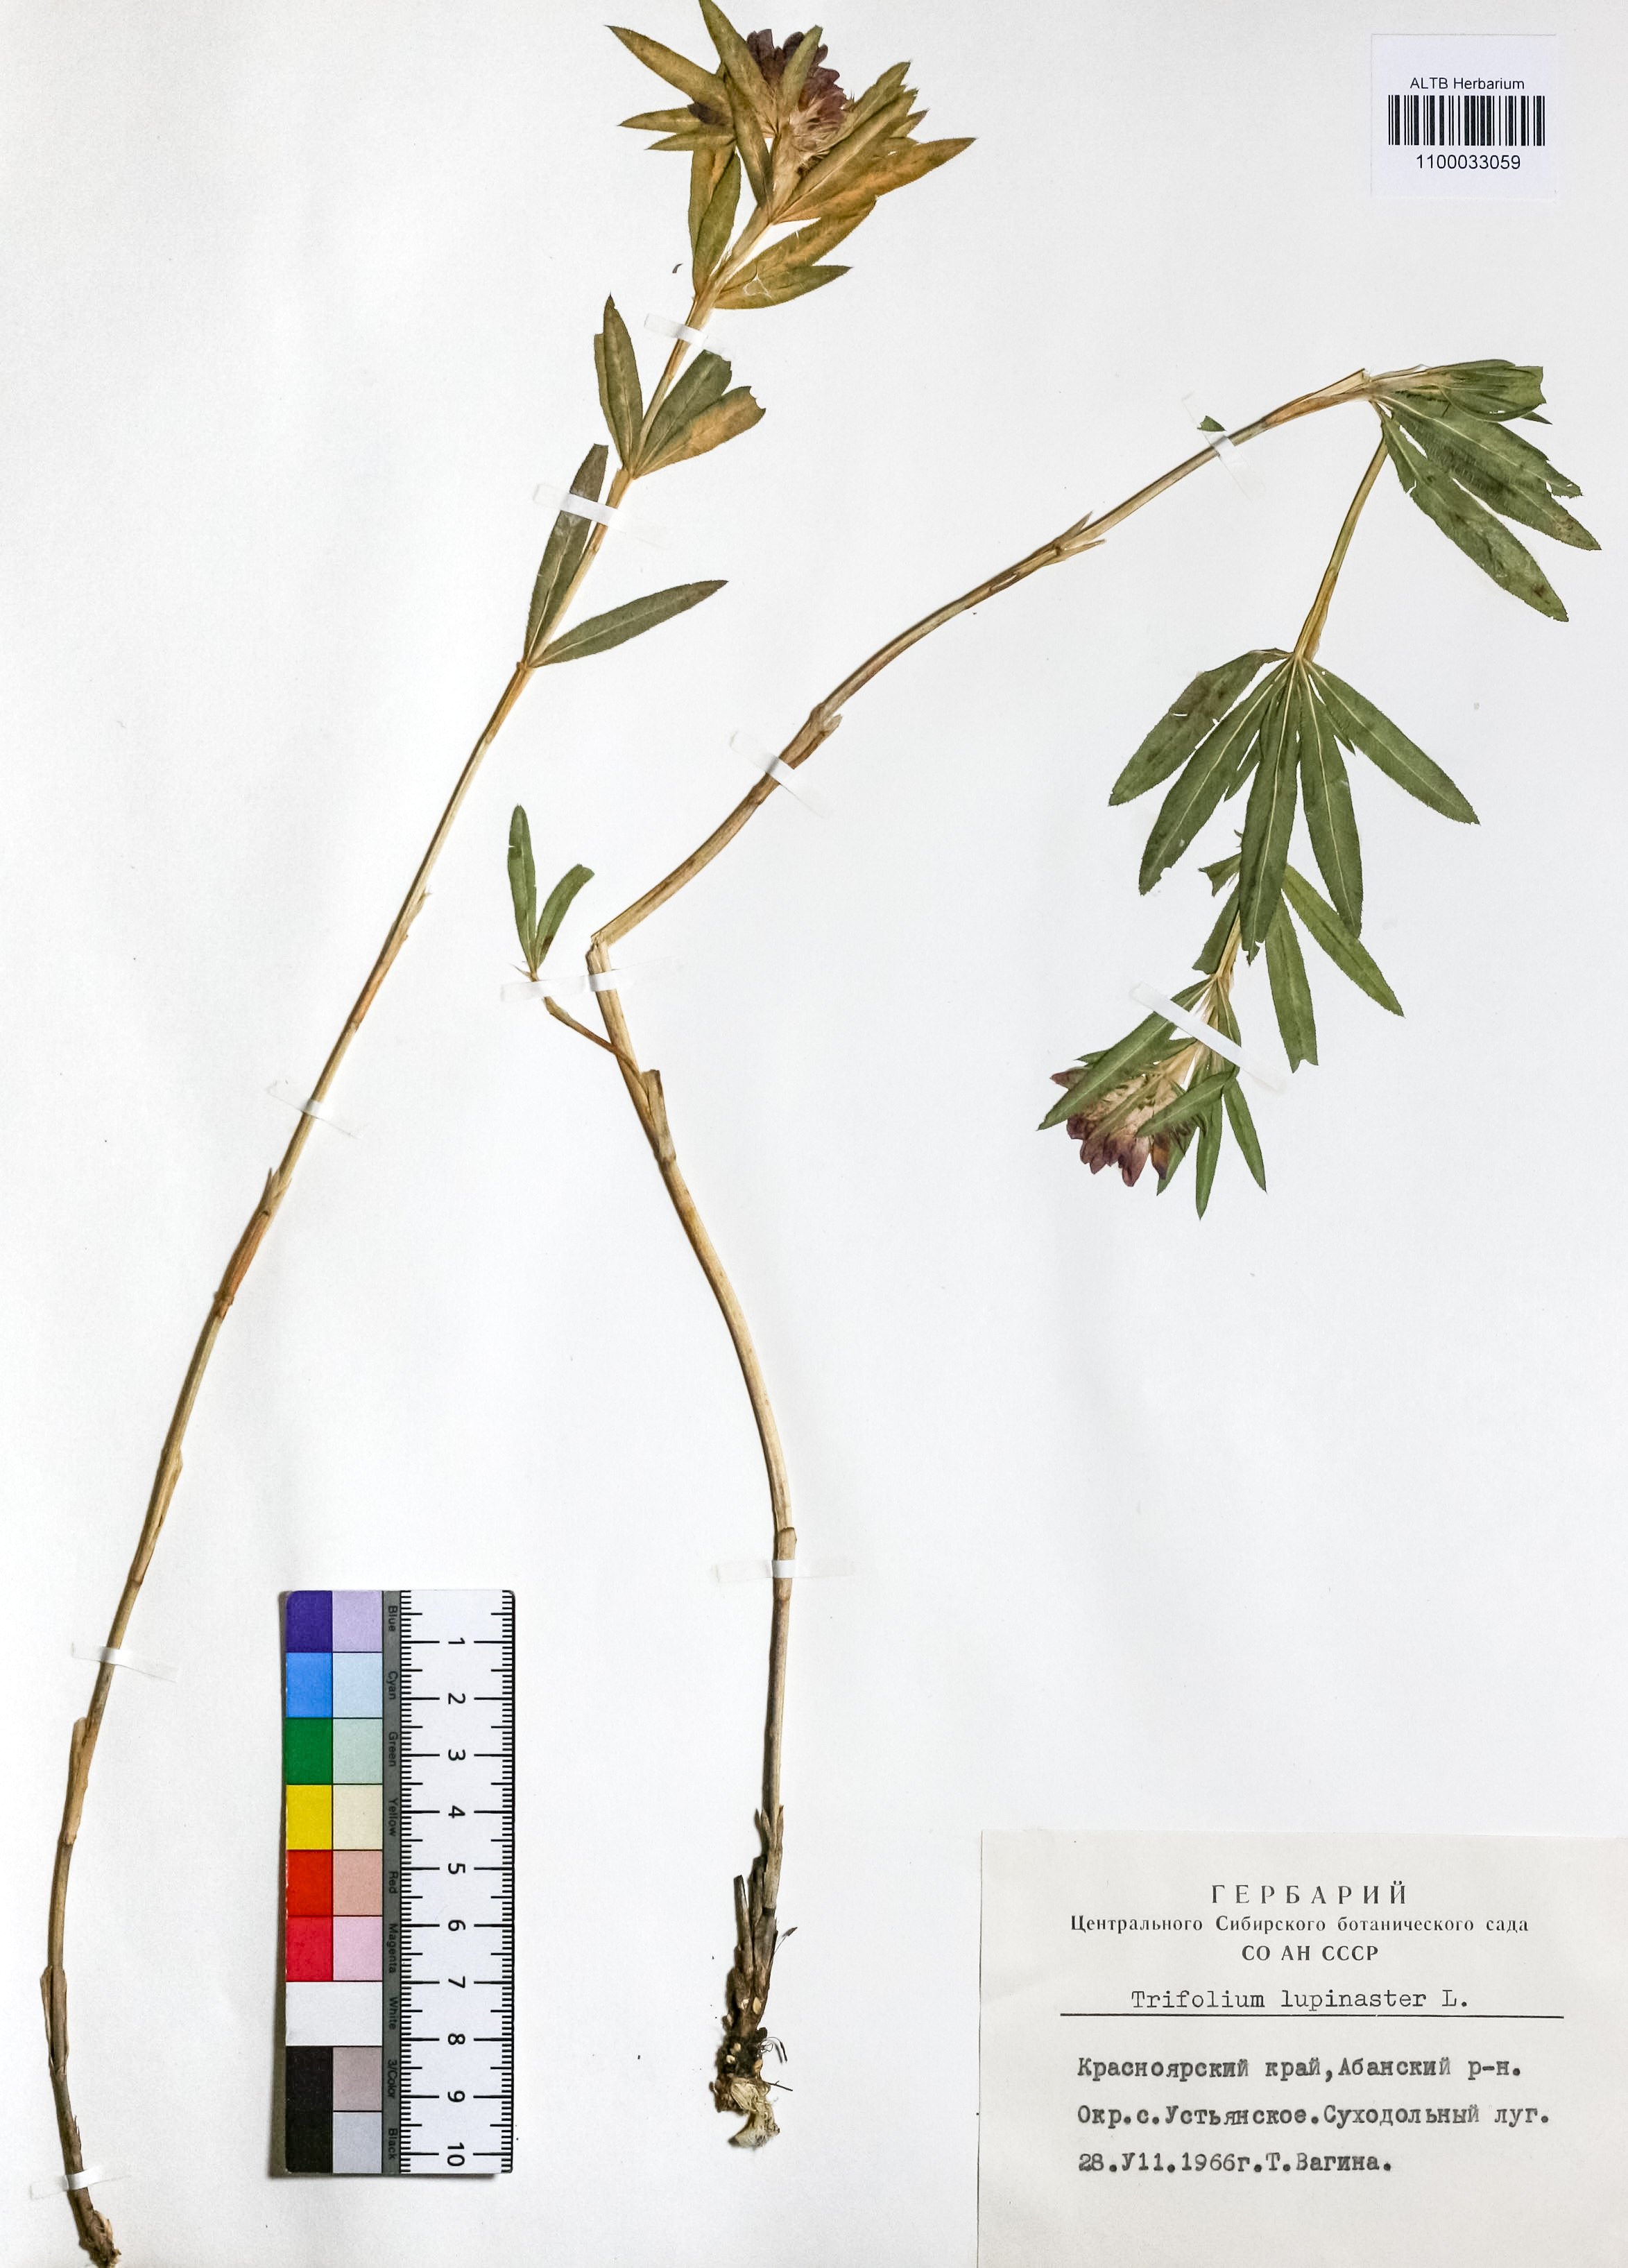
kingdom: Plantae
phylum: Tracheophyta
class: Magnoliopsida
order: Fabales
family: Fabaceae
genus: Trifolium
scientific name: Trifolium lupinaster
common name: Lupine clover
